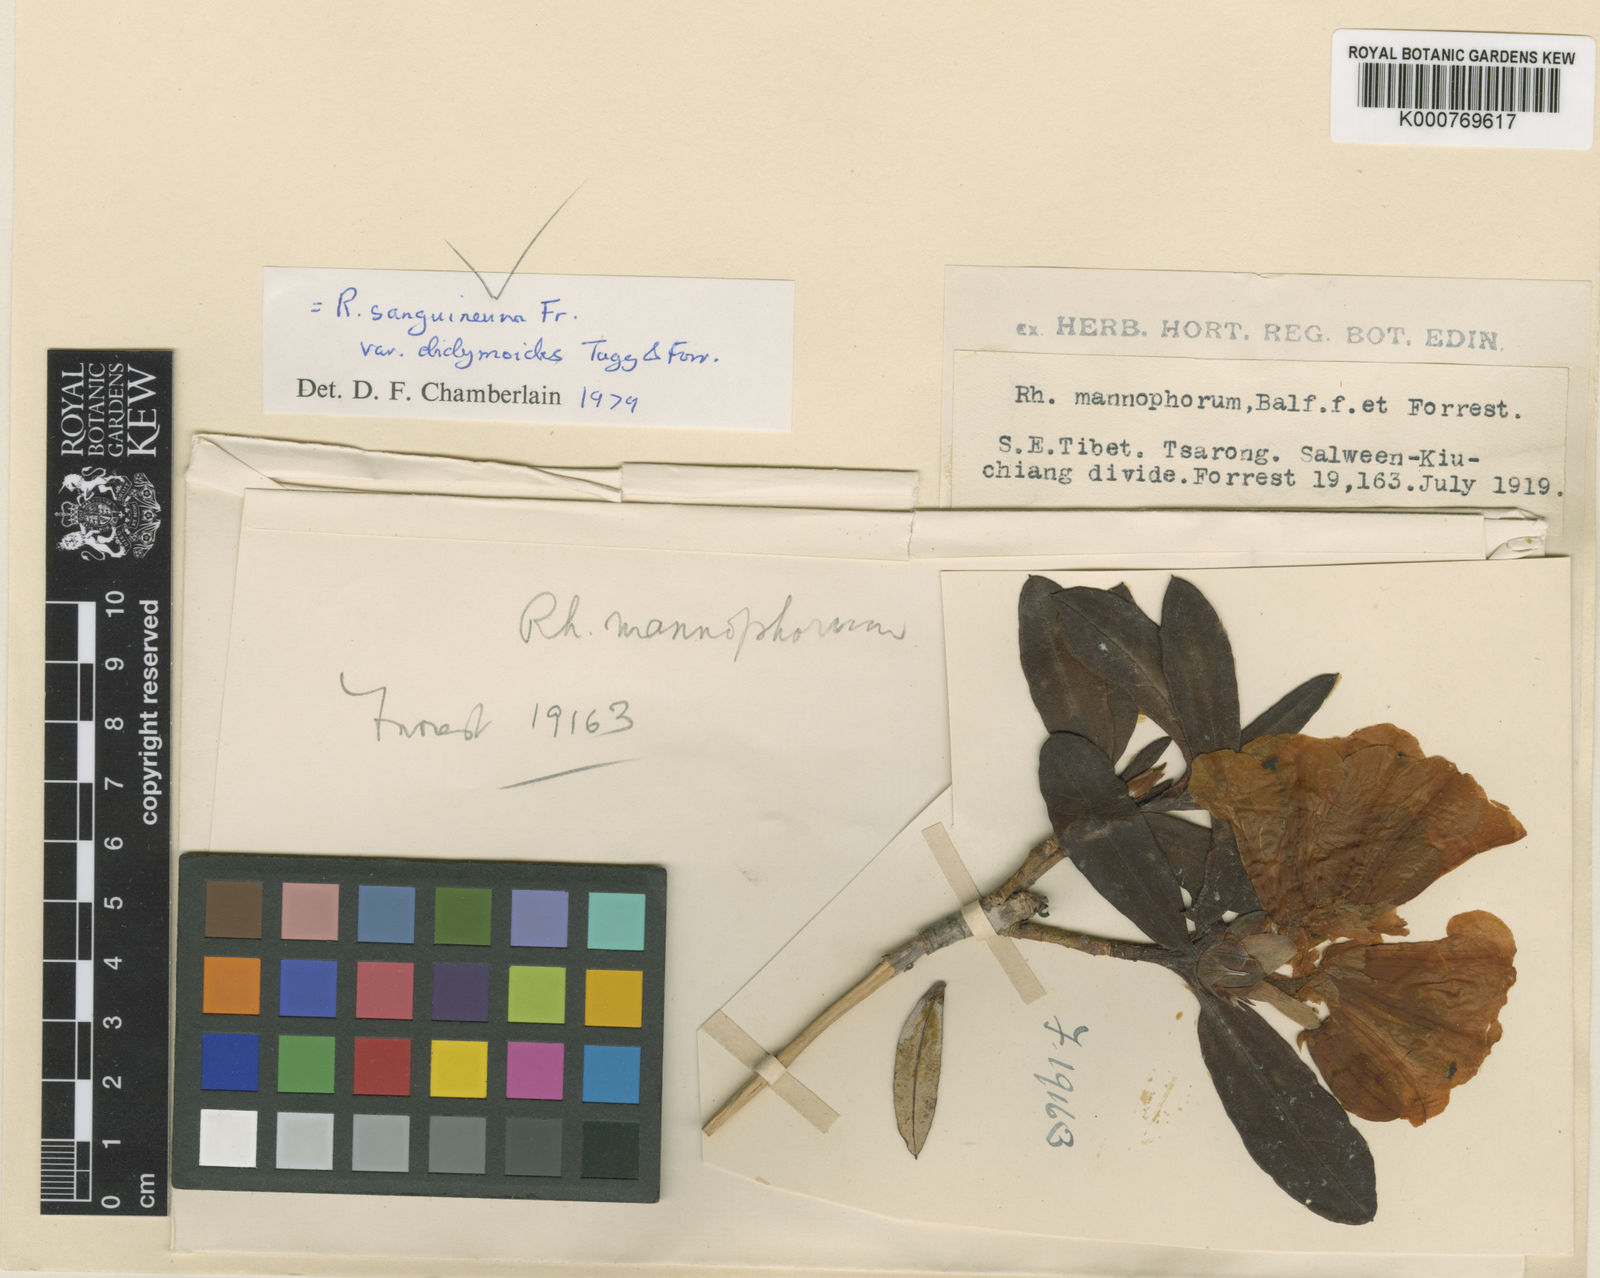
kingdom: Plantae
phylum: Tracheophyta
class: Magnoliopsida
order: Ericales
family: Ericaceae
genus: Rhododendron
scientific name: Rhododendron sanguineum
